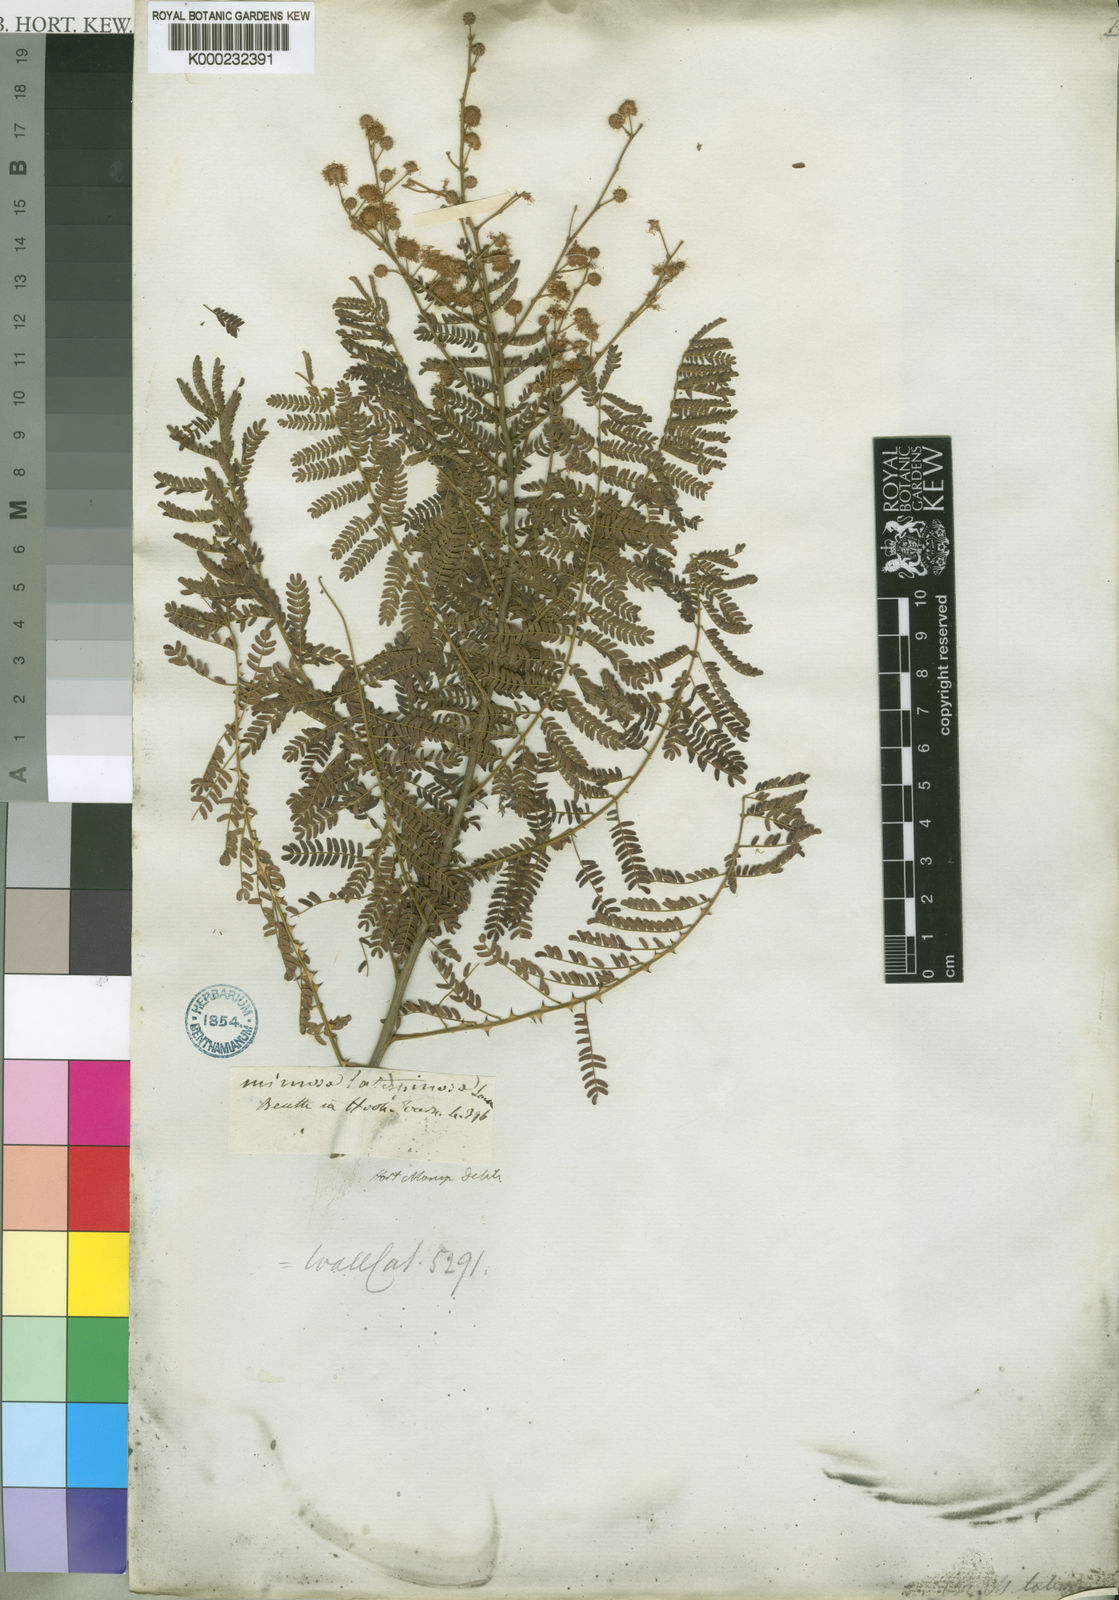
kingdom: Plantae
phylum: Tracheophyta
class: Magnoliopsida
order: Fabales
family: Fabaceae
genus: Mimosa
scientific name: Mimosa latispinosa
